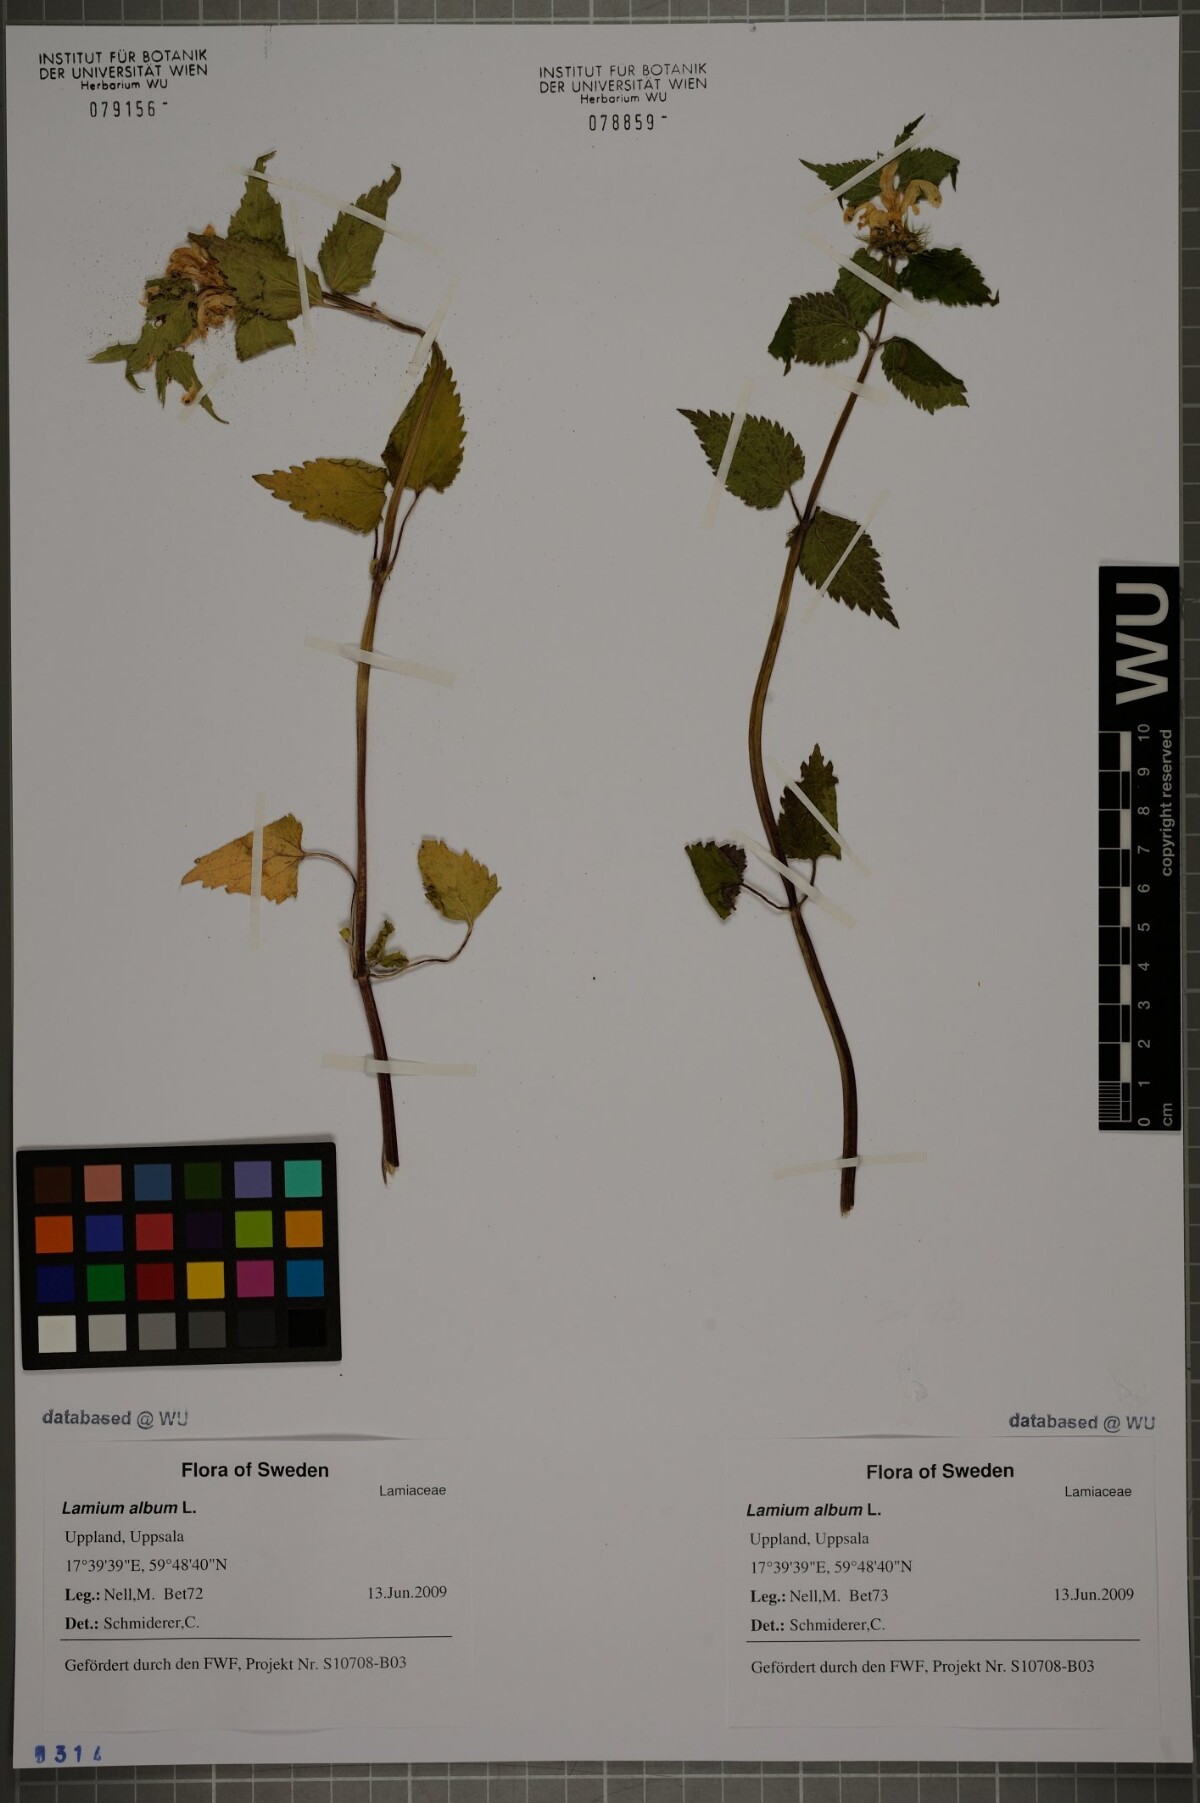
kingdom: Plantae
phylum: Tracheophyta
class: Magnoliopsida
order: Lamiales
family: Lamiaceae
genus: Lamium
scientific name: Lamium album
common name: White dead-nettle
